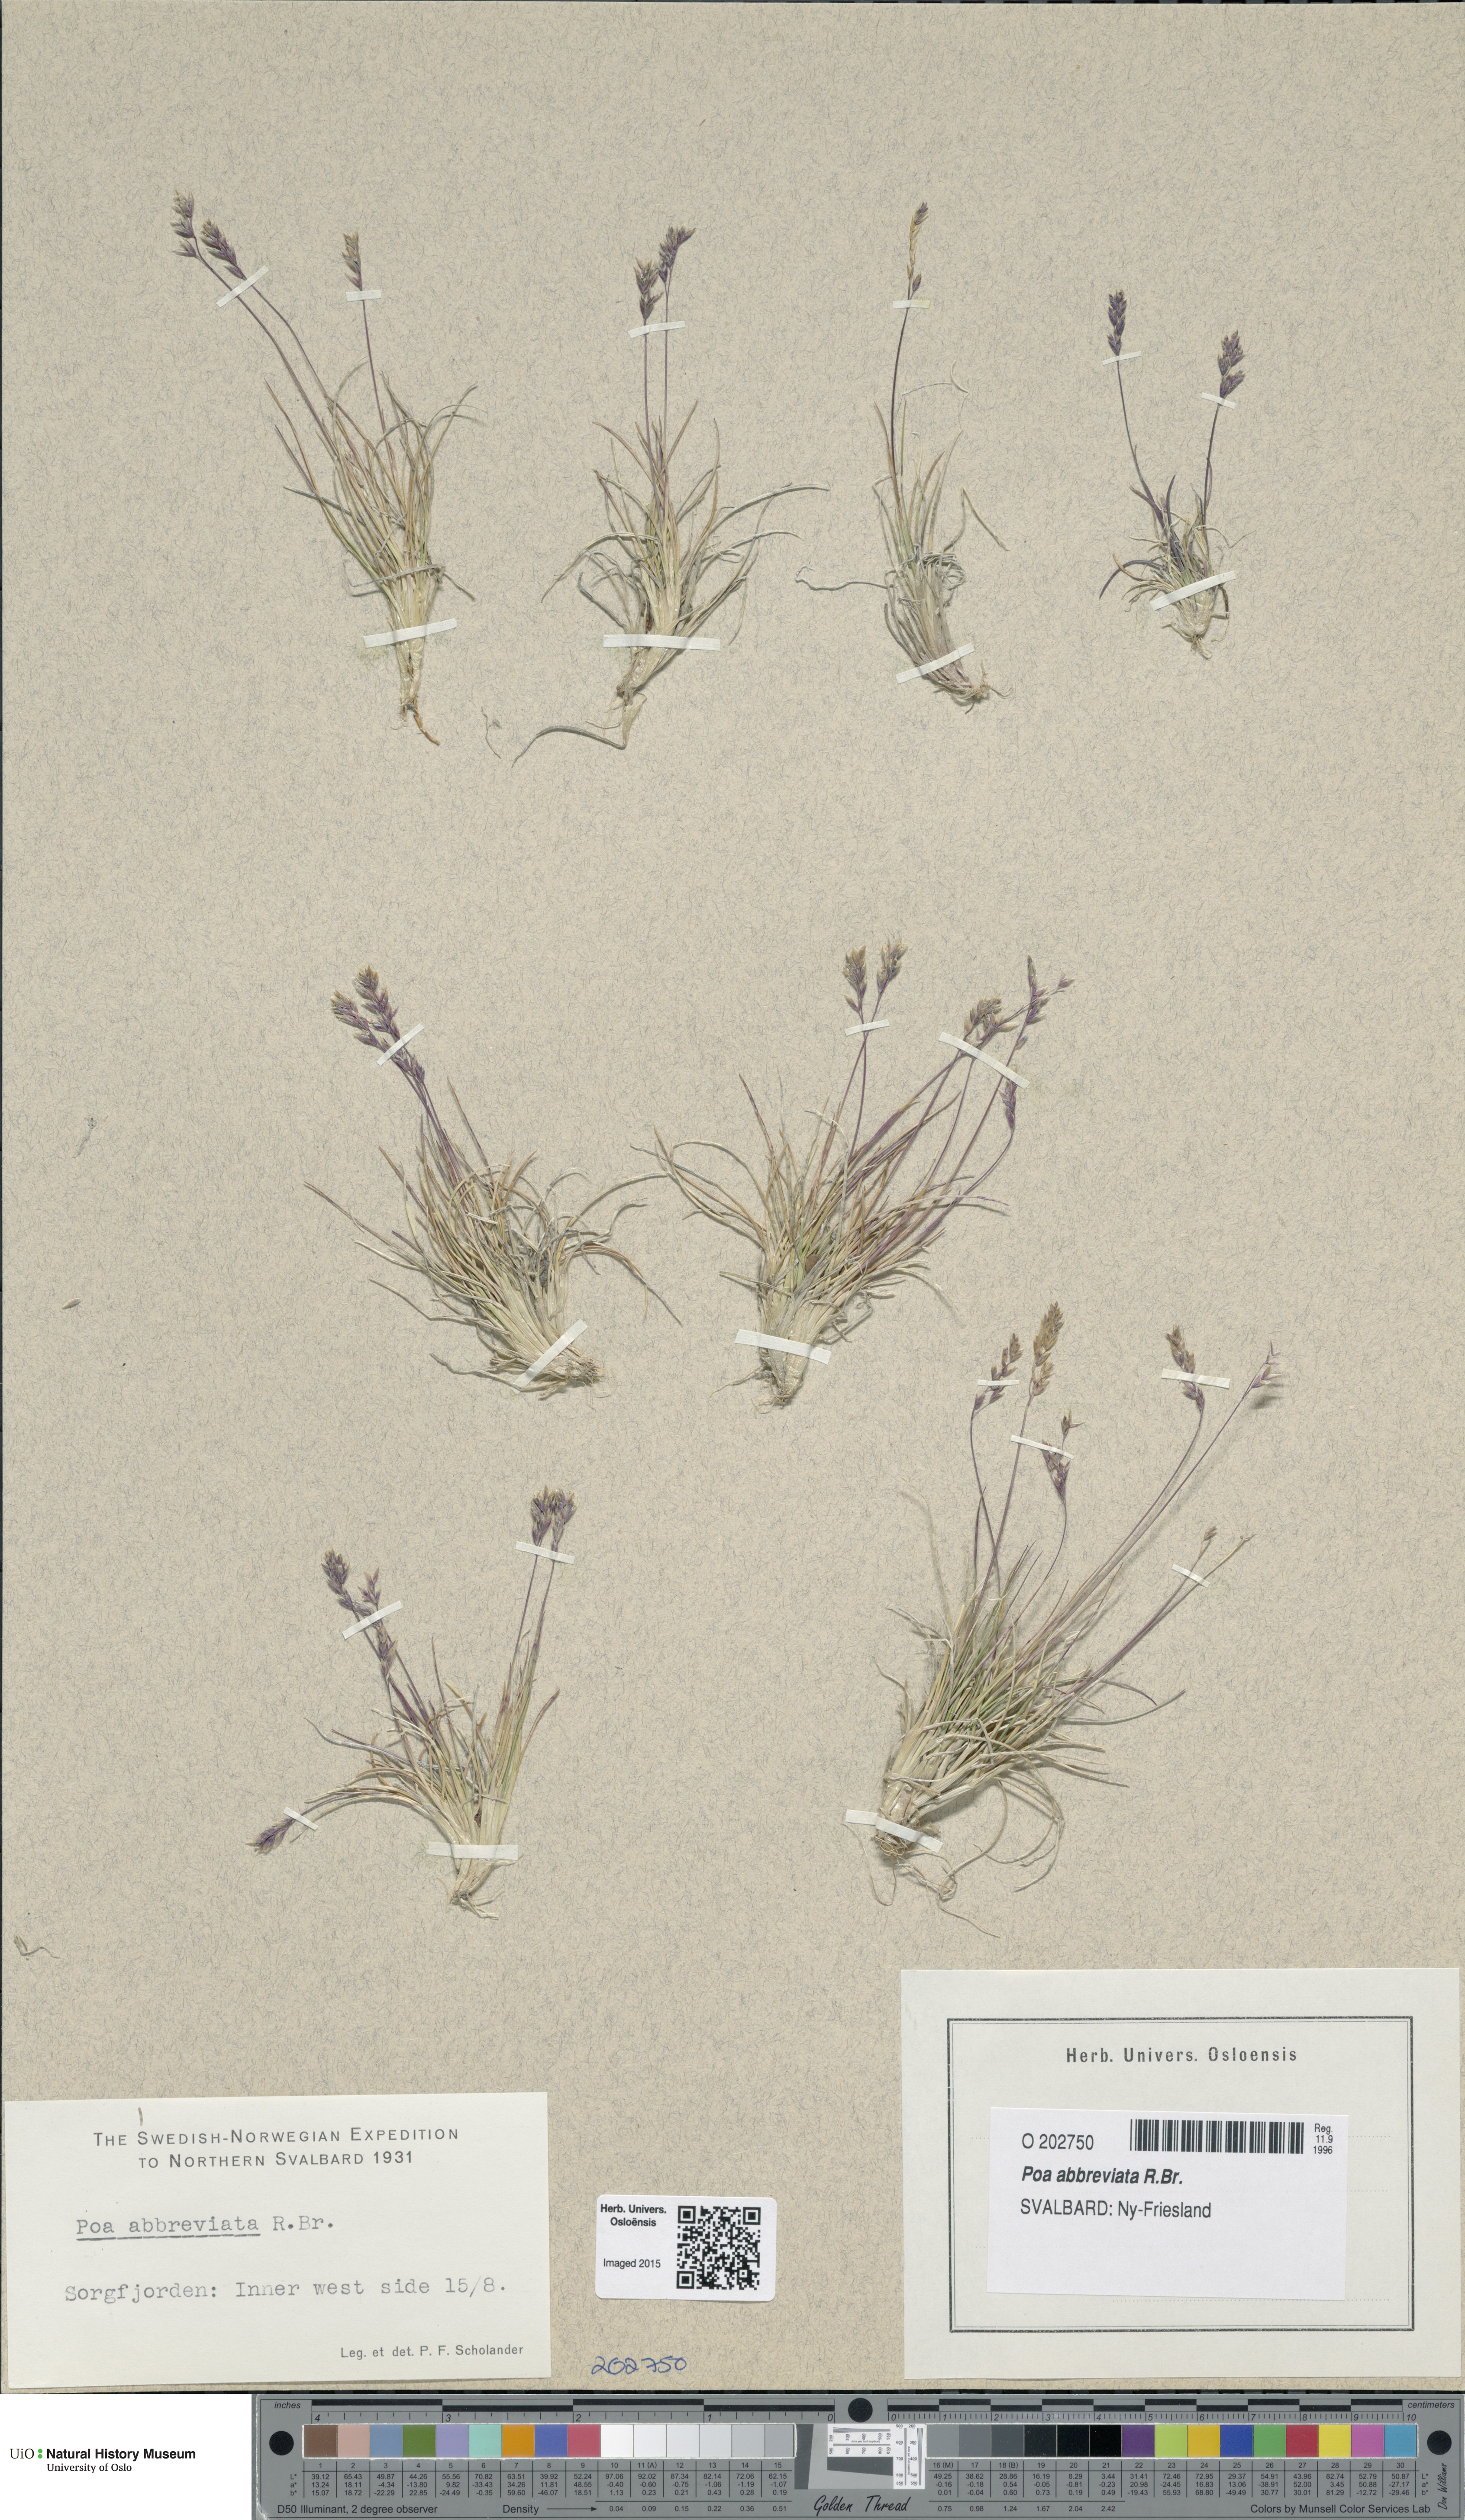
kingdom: Plantae
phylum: Tracheophyta
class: Liliopsida
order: Poales
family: Poaceae
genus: Poa
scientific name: Poa abbreviata
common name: Abbreviated bluegrass
